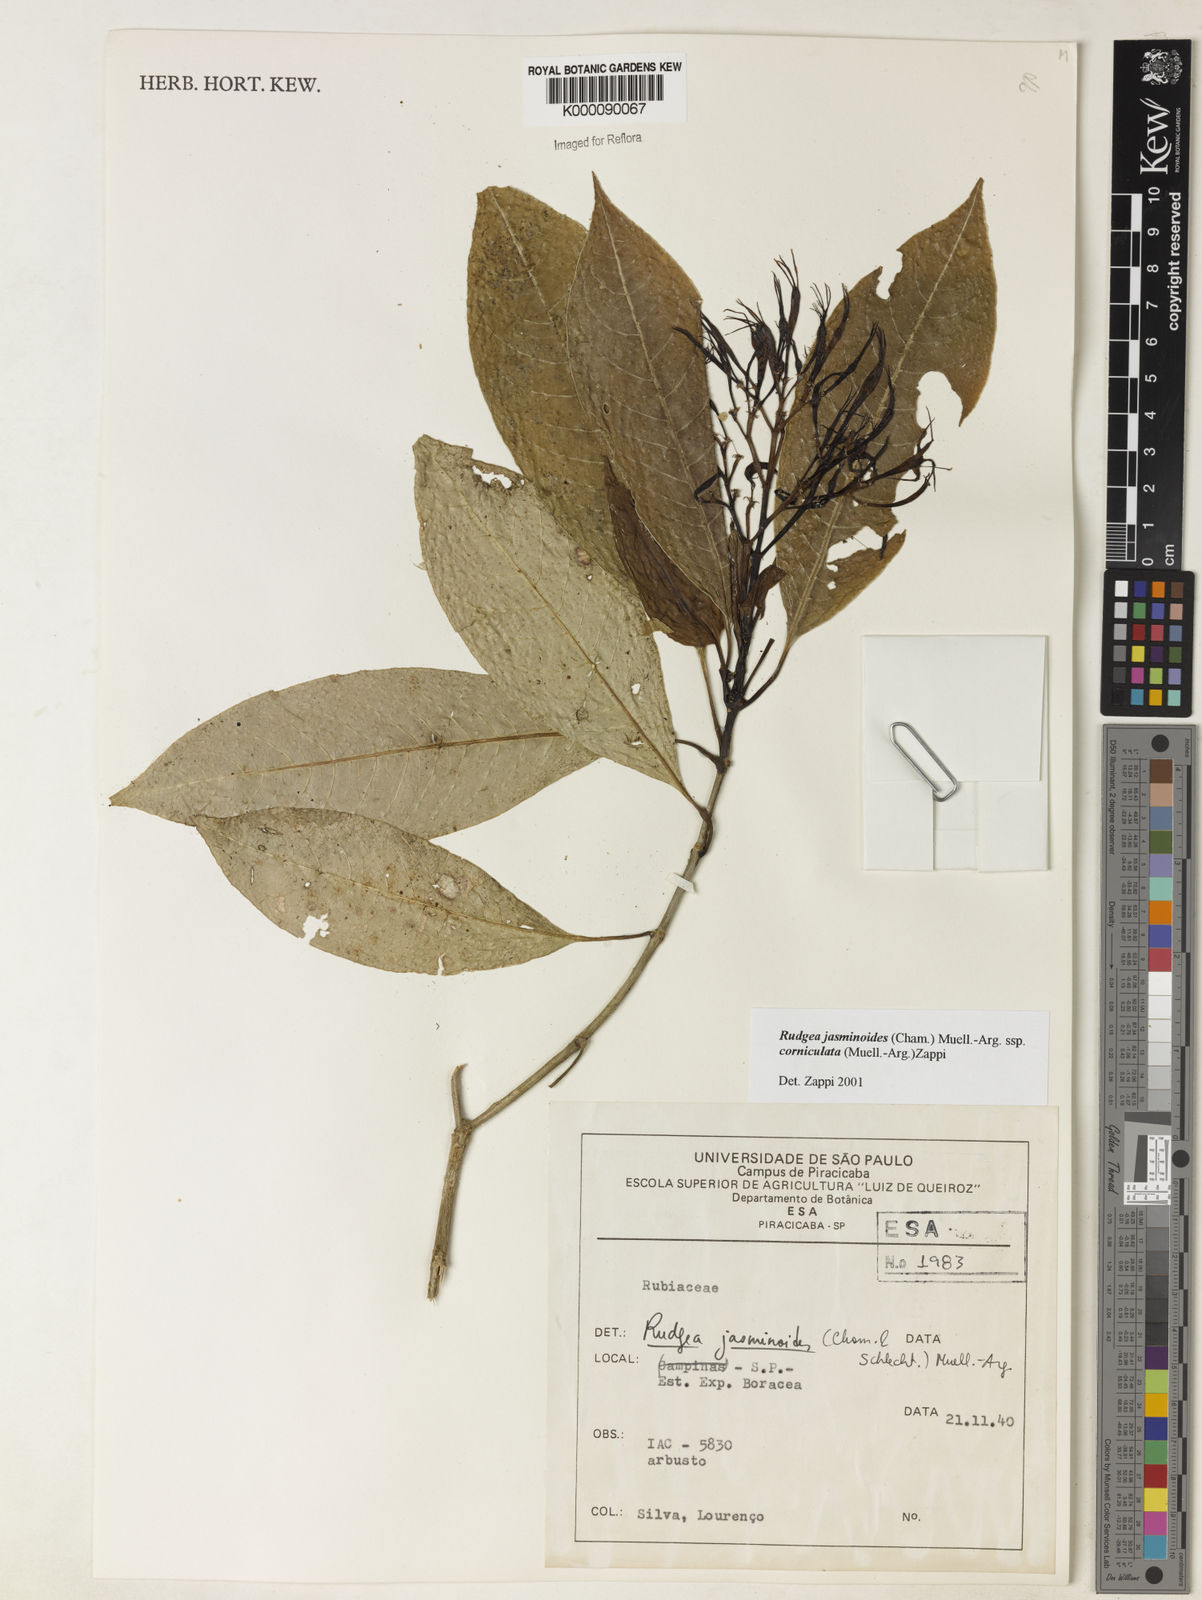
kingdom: Plantae
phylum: Tracheophyta
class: Magnoliopsida
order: Gentianales
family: Rubiaceae
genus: Rudgea
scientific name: Rudgea jasminoides
